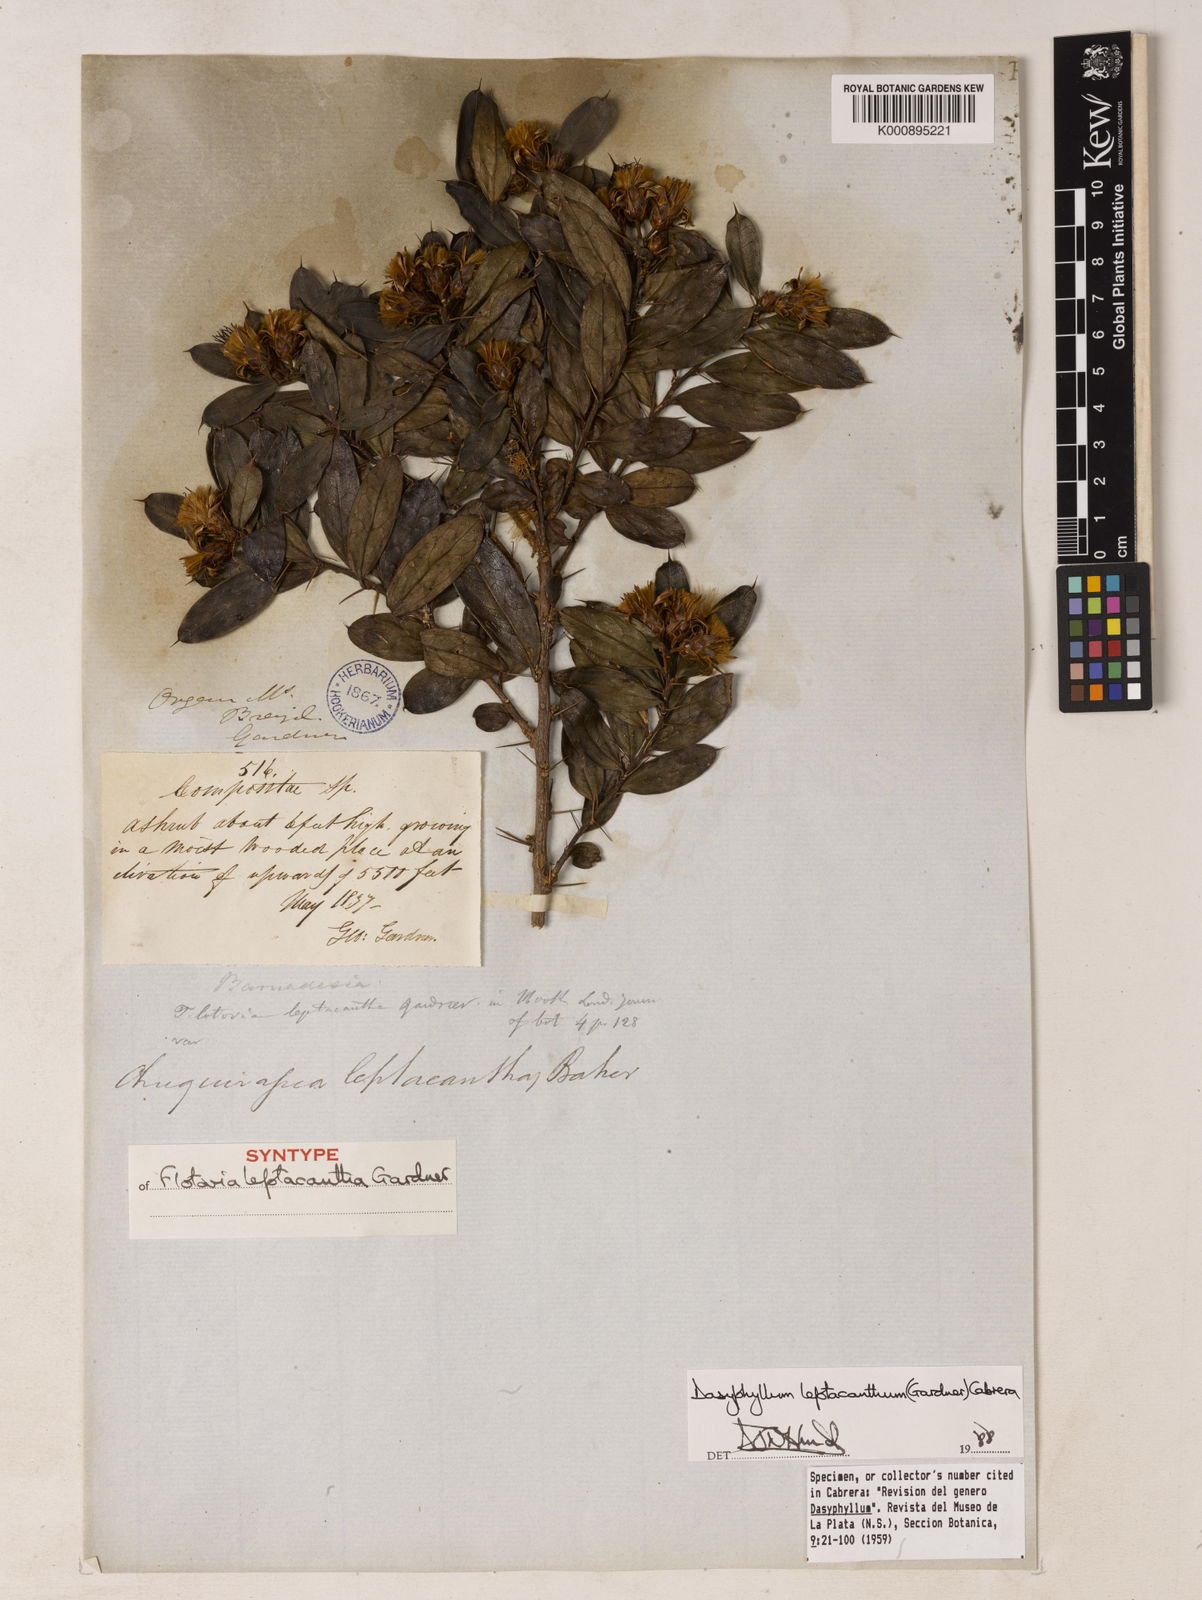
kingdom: Plantae
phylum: Tracheophyta
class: Magnoliopsida
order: Asterales
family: Asteraceae
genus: Dasyphyllum
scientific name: Dasyphyllum leptacanthum
